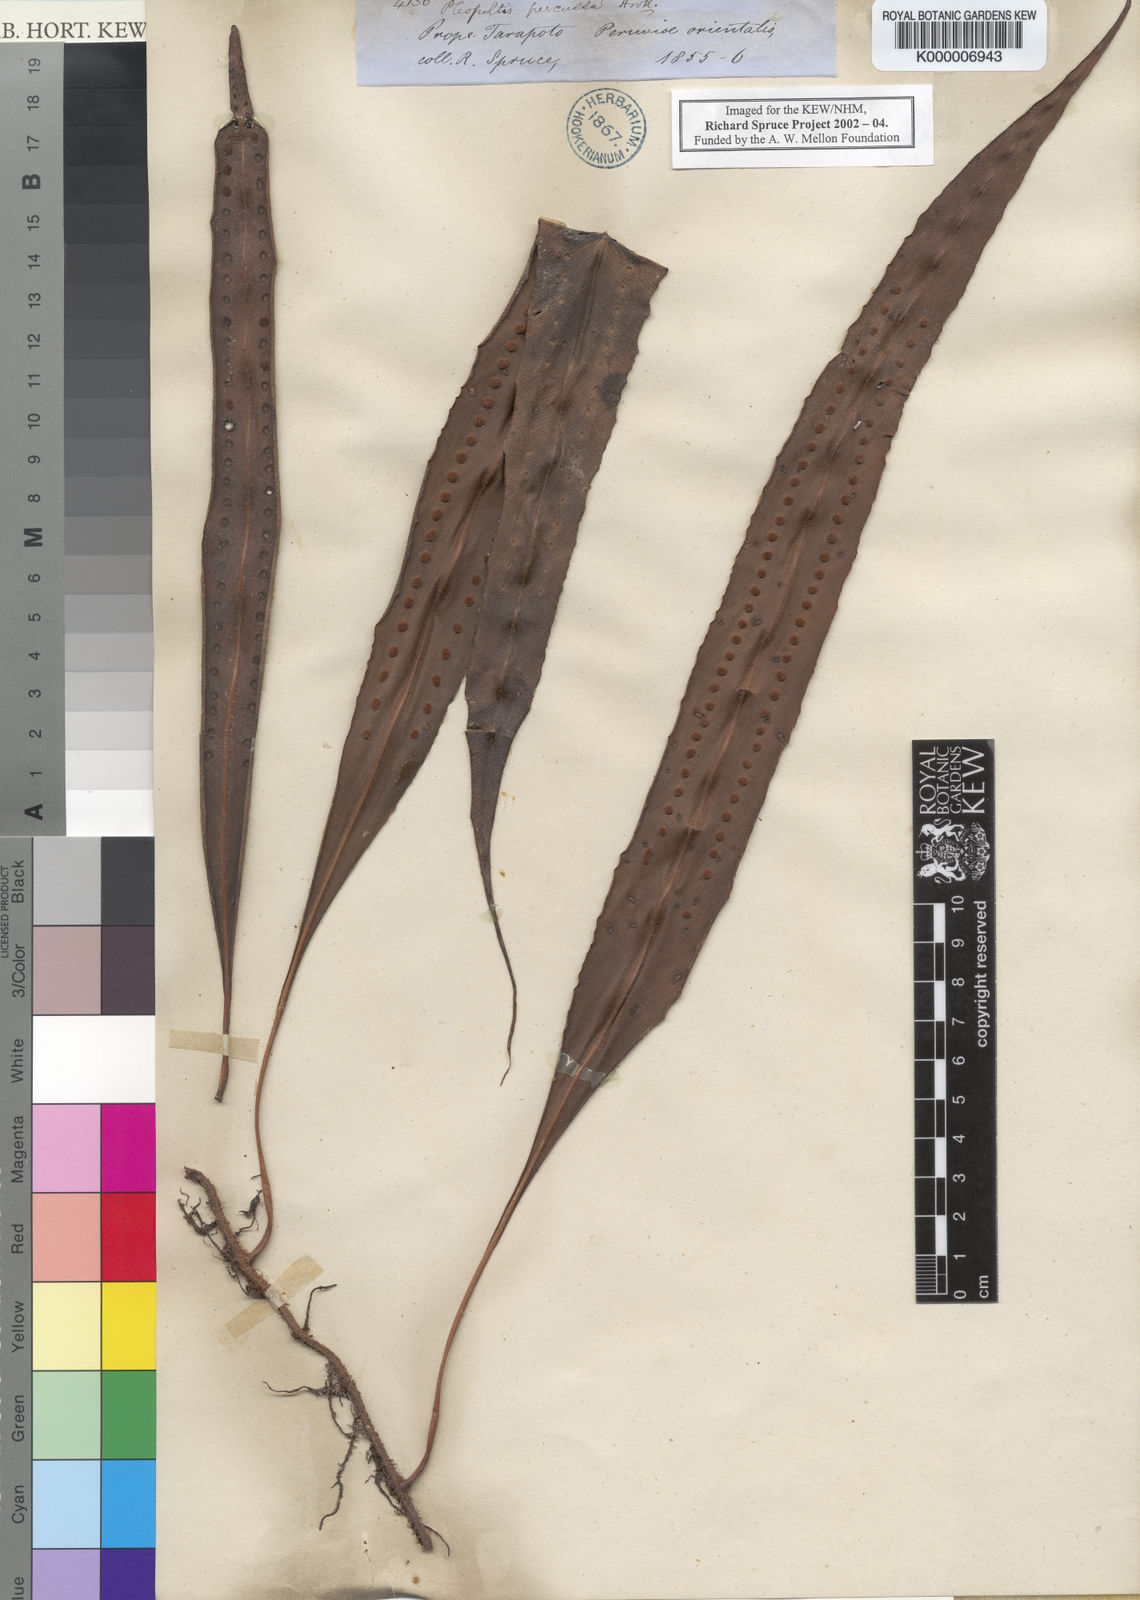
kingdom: Plantae
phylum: Tracheophyta
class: Polypodiopsida
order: Polypodiales
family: Polypodiaceae
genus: Microgramma
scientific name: Microgramma percussa
